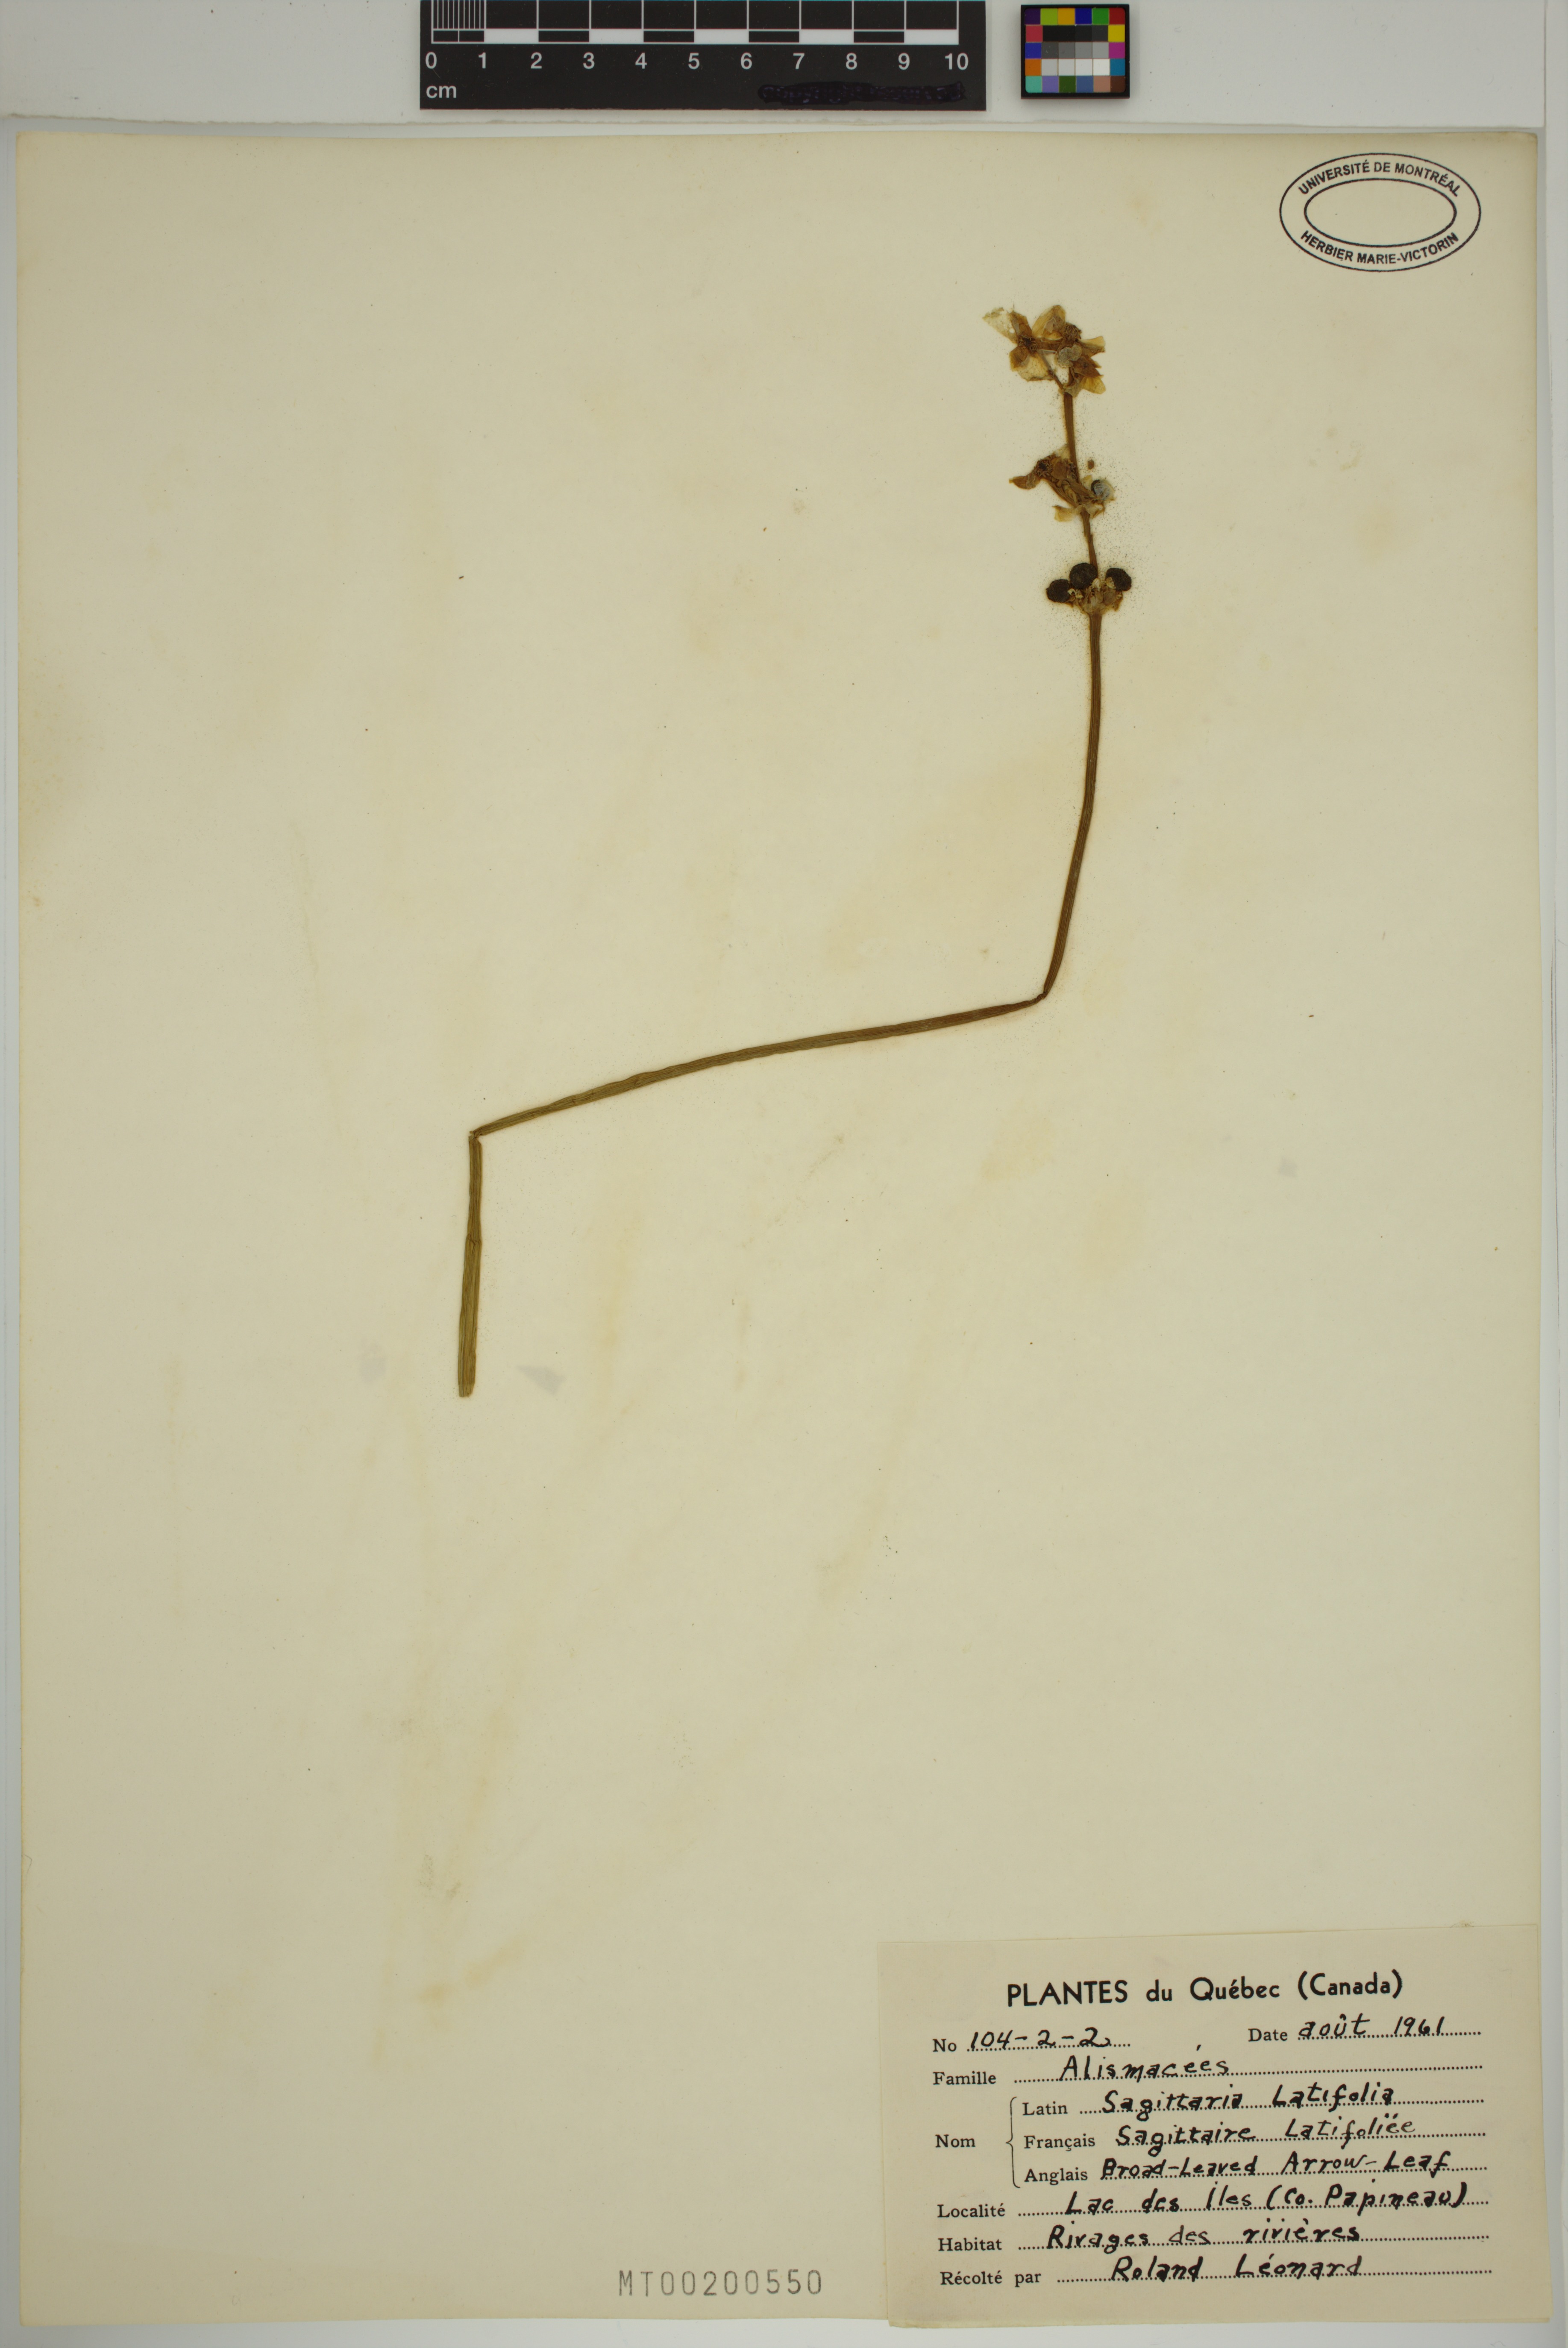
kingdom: Plantae
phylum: Tracheophyta
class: Liliopsida
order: Alismatales
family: Alismataceae
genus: Sagittaria
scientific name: Sagittaria latifolia
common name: Duck-potato
